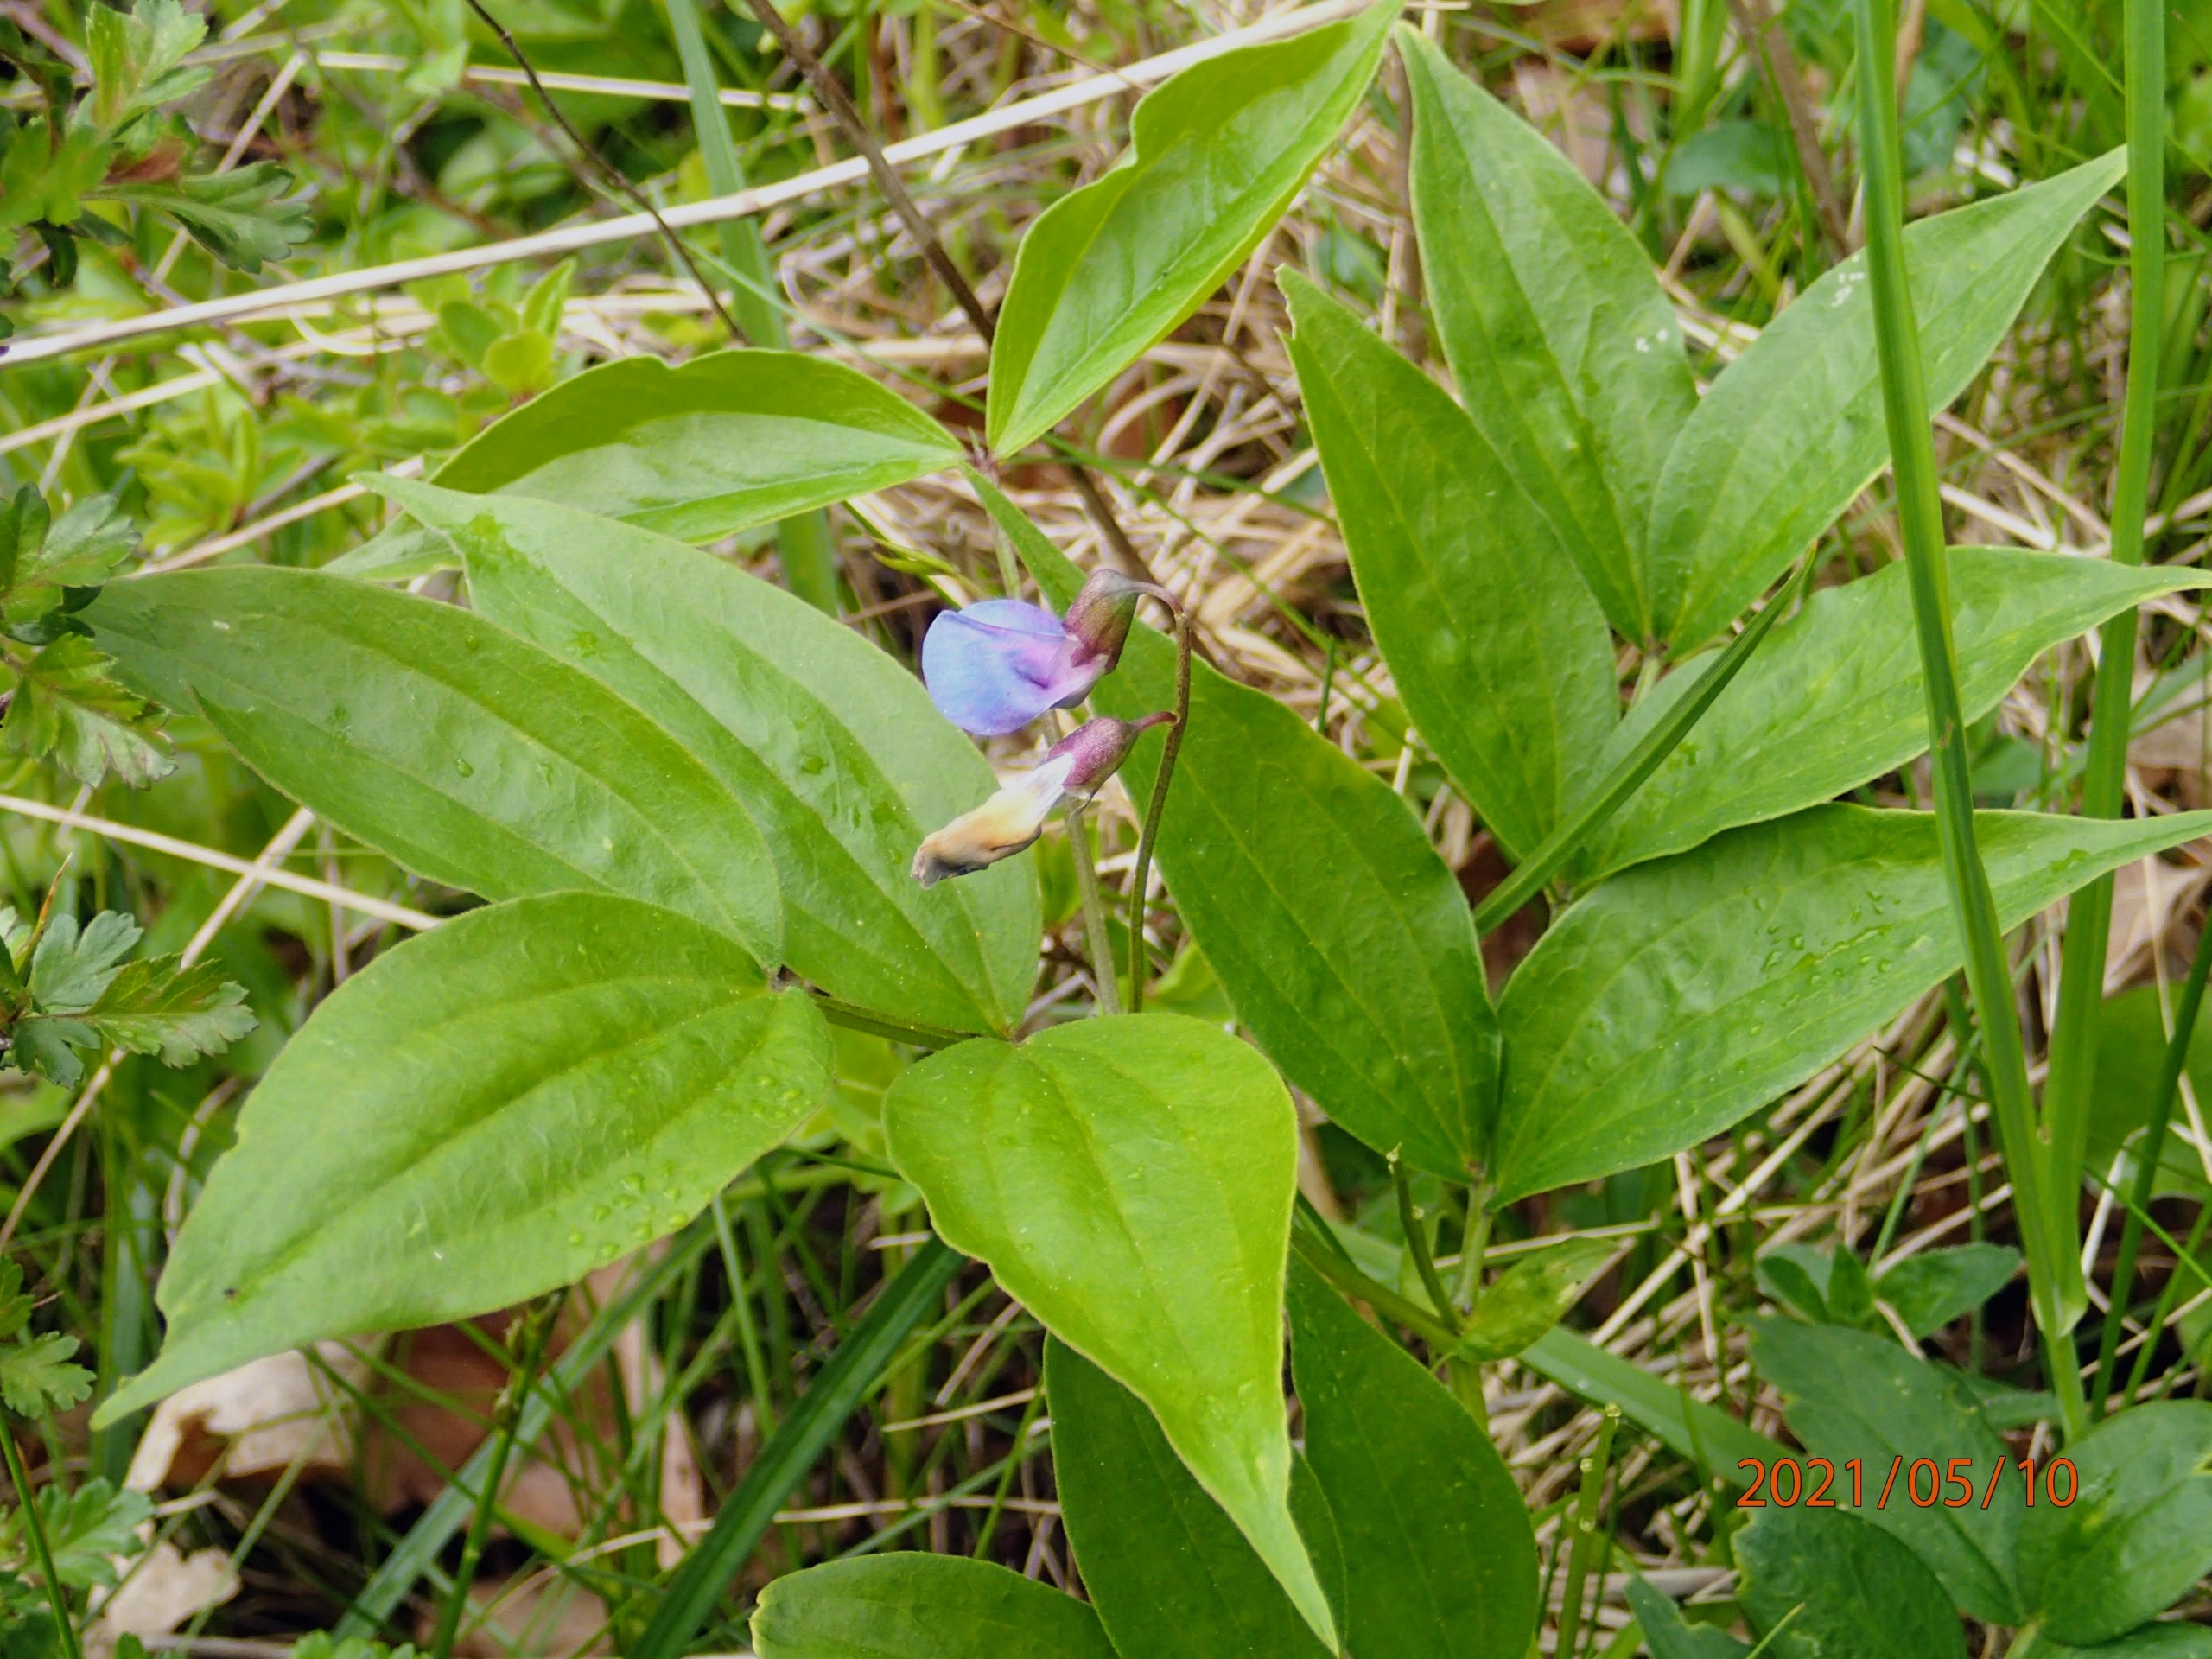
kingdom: Plantae
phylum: Tracheophyta
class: Magnoliopsida
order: Fabales
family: Fabaceae
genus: Lathyrus
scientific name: Lathyrus vernus
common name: Vår-fladbælg
